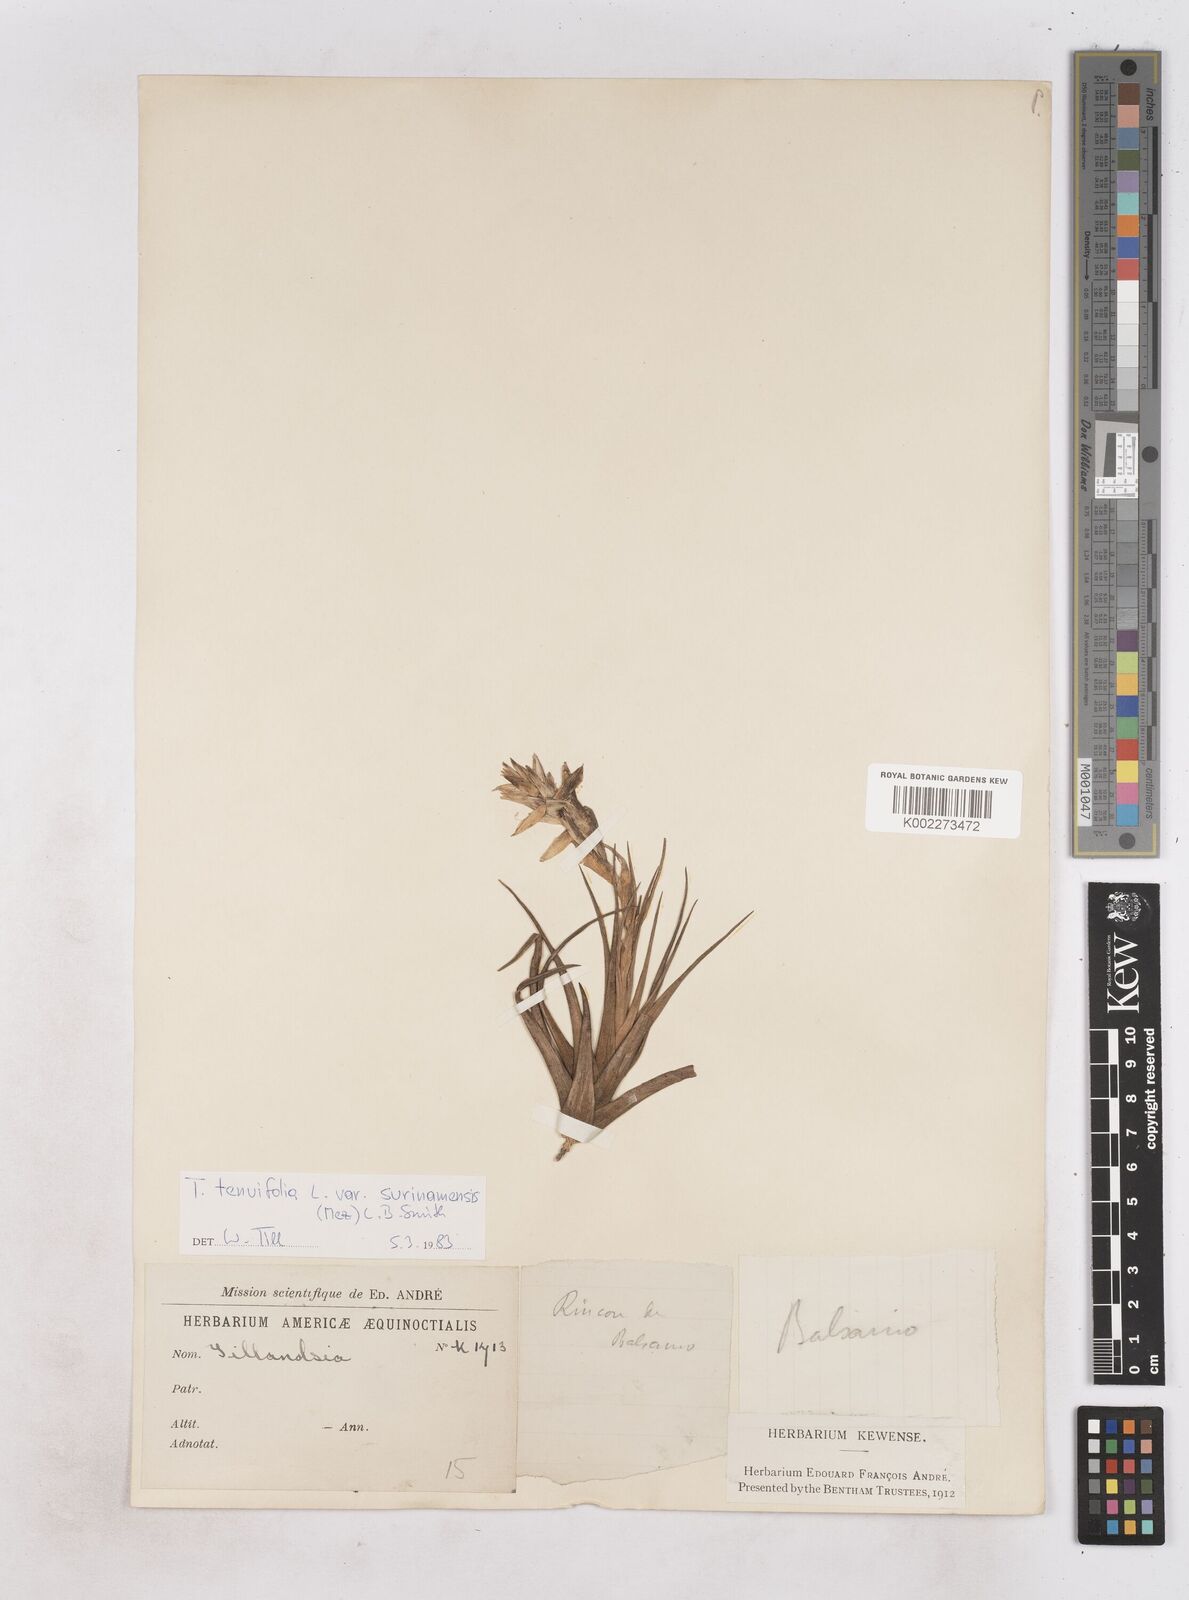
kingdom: Plantae
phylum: Tracheophyta
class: Liliopsida
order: Poales
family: Bromeliaceae
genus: Tillandsia
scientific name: Tillandsia tenuifolia
